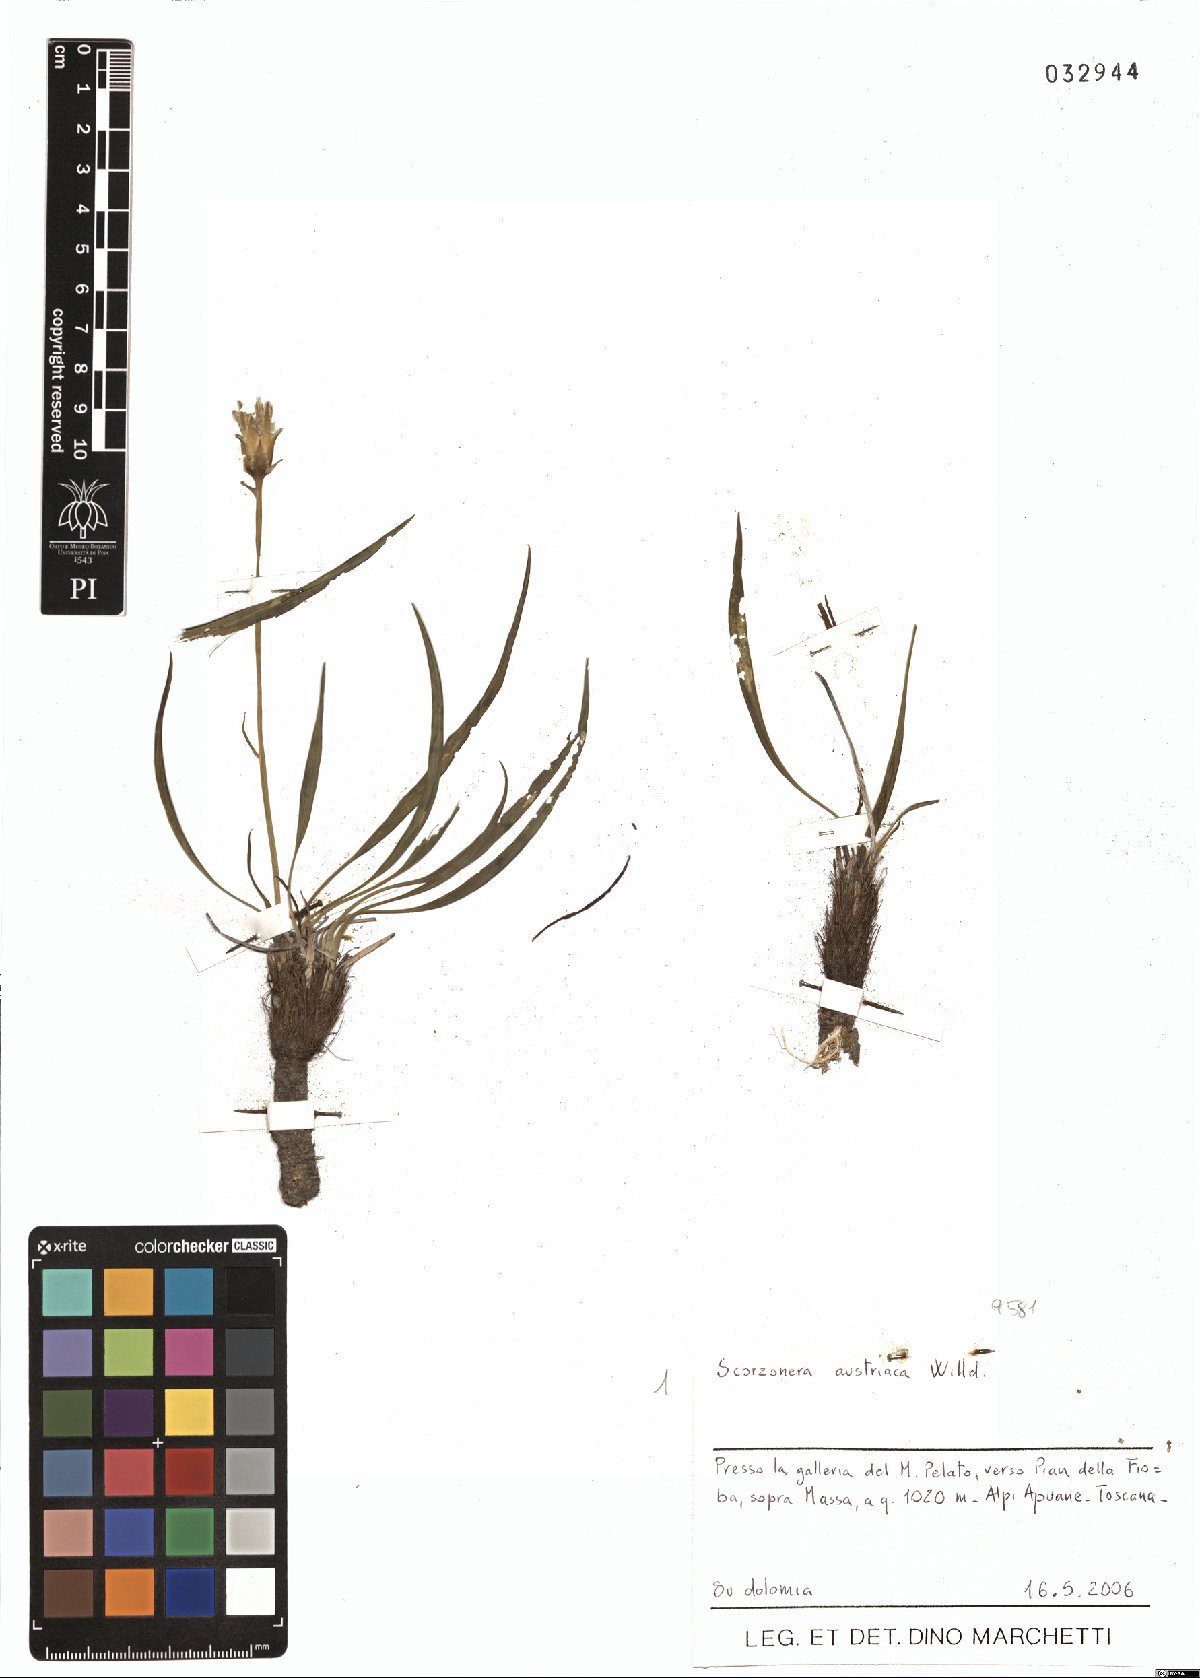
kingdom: Plantae
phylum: Tracheophyta
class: Magnoliopsida
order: Asterales
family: Asteraceae
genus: Takhtajaniantha
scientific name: Takhtajaniantha austriaca
